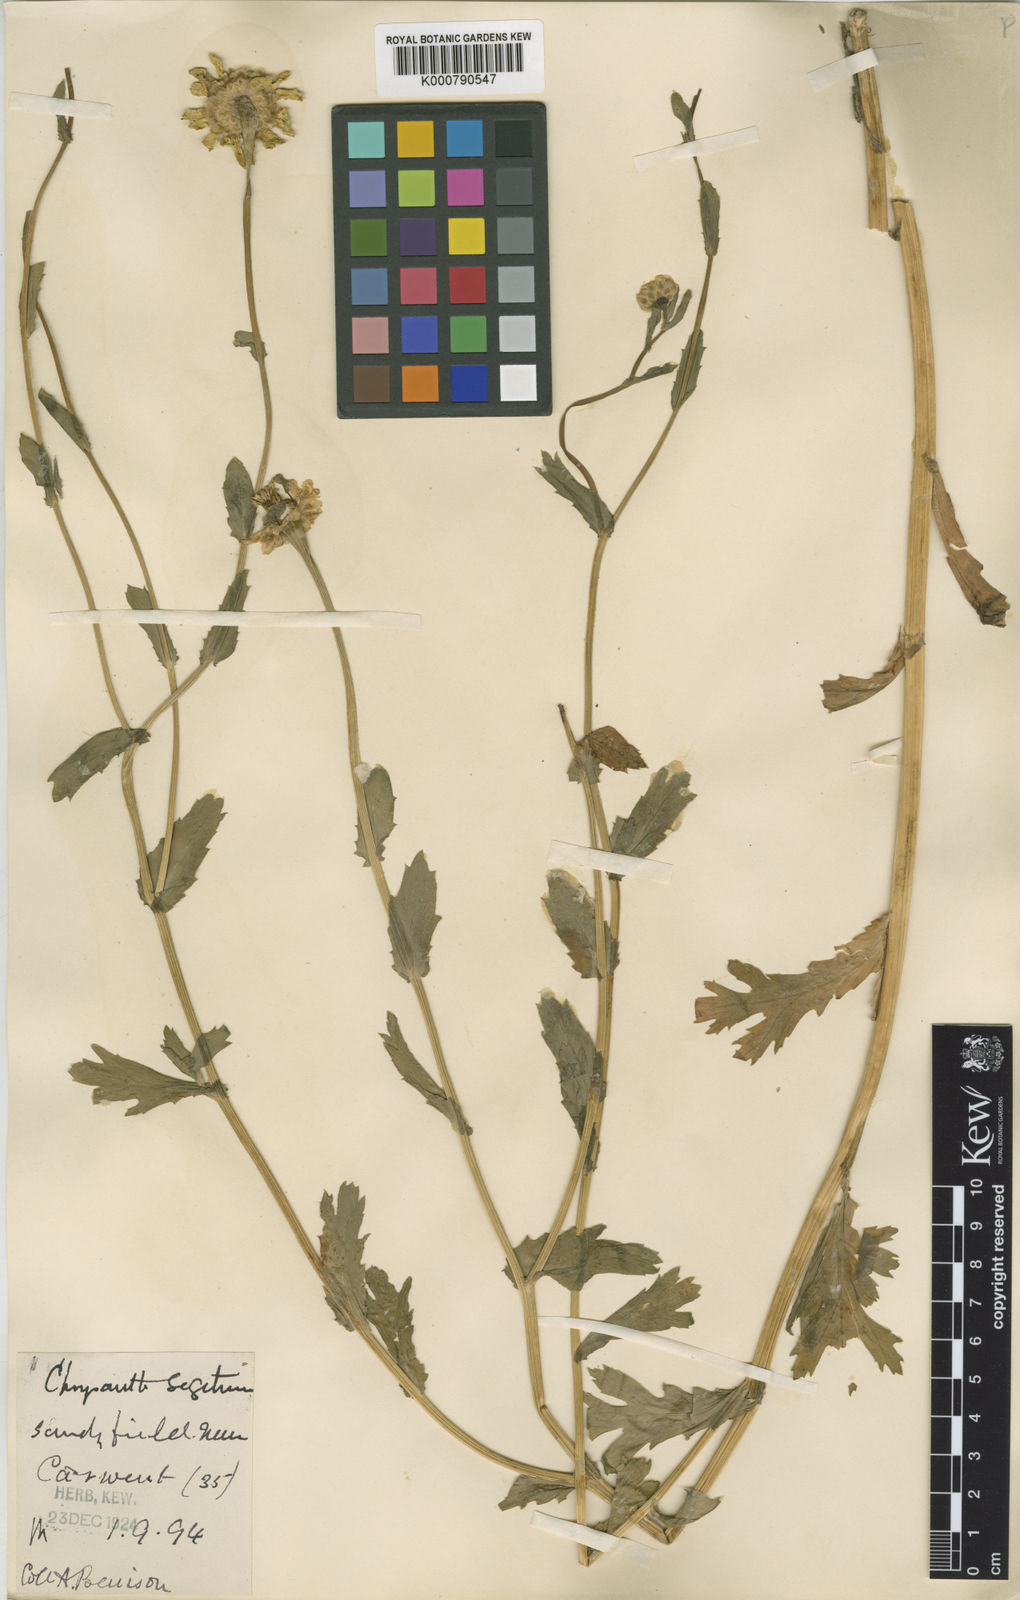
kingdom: Plantae
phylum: Tracheophyta
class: Magnoliopsida
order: Asterales
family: Asteraceae
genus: Glebionis
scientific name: Glebionis segetum
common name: Corndaisy
